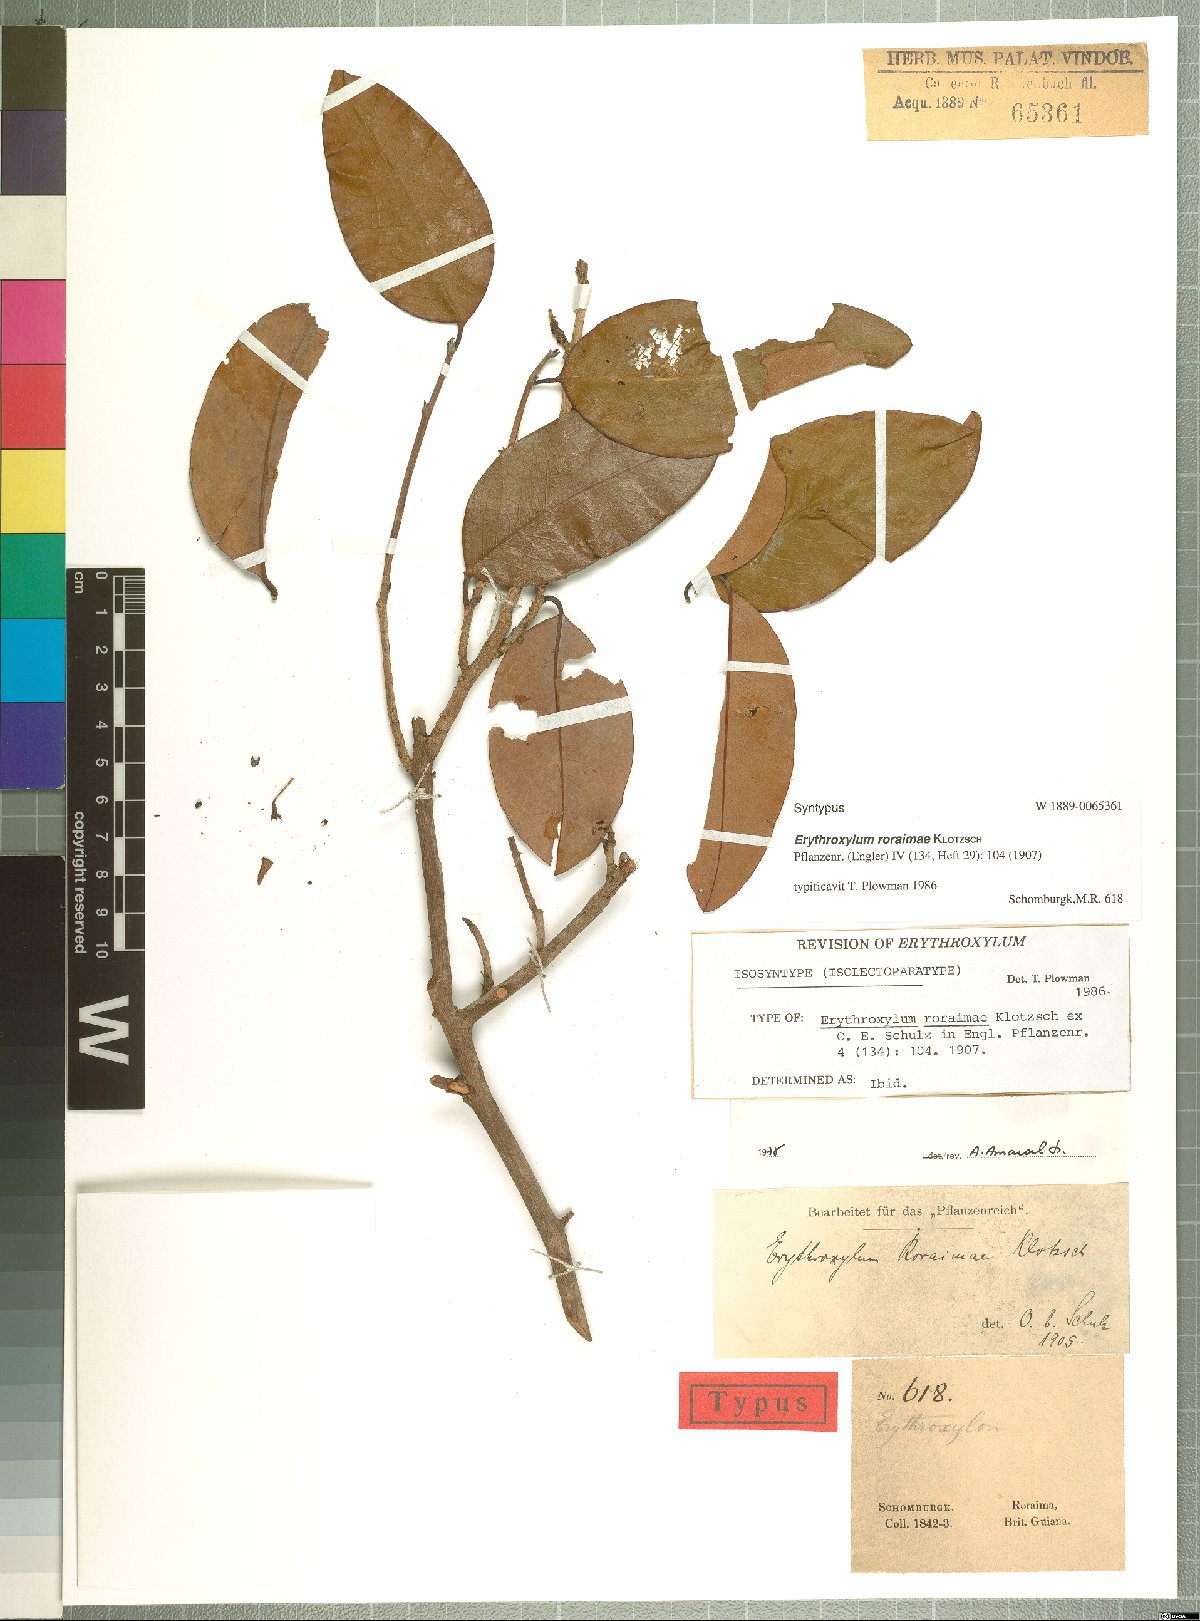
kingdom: Plantae
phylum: Tracheophyta
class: Magnoliopsida
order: Malpighiales
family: Erythroxylaceae
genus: Erythroxylum
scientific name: Erythroxylum roraimae
